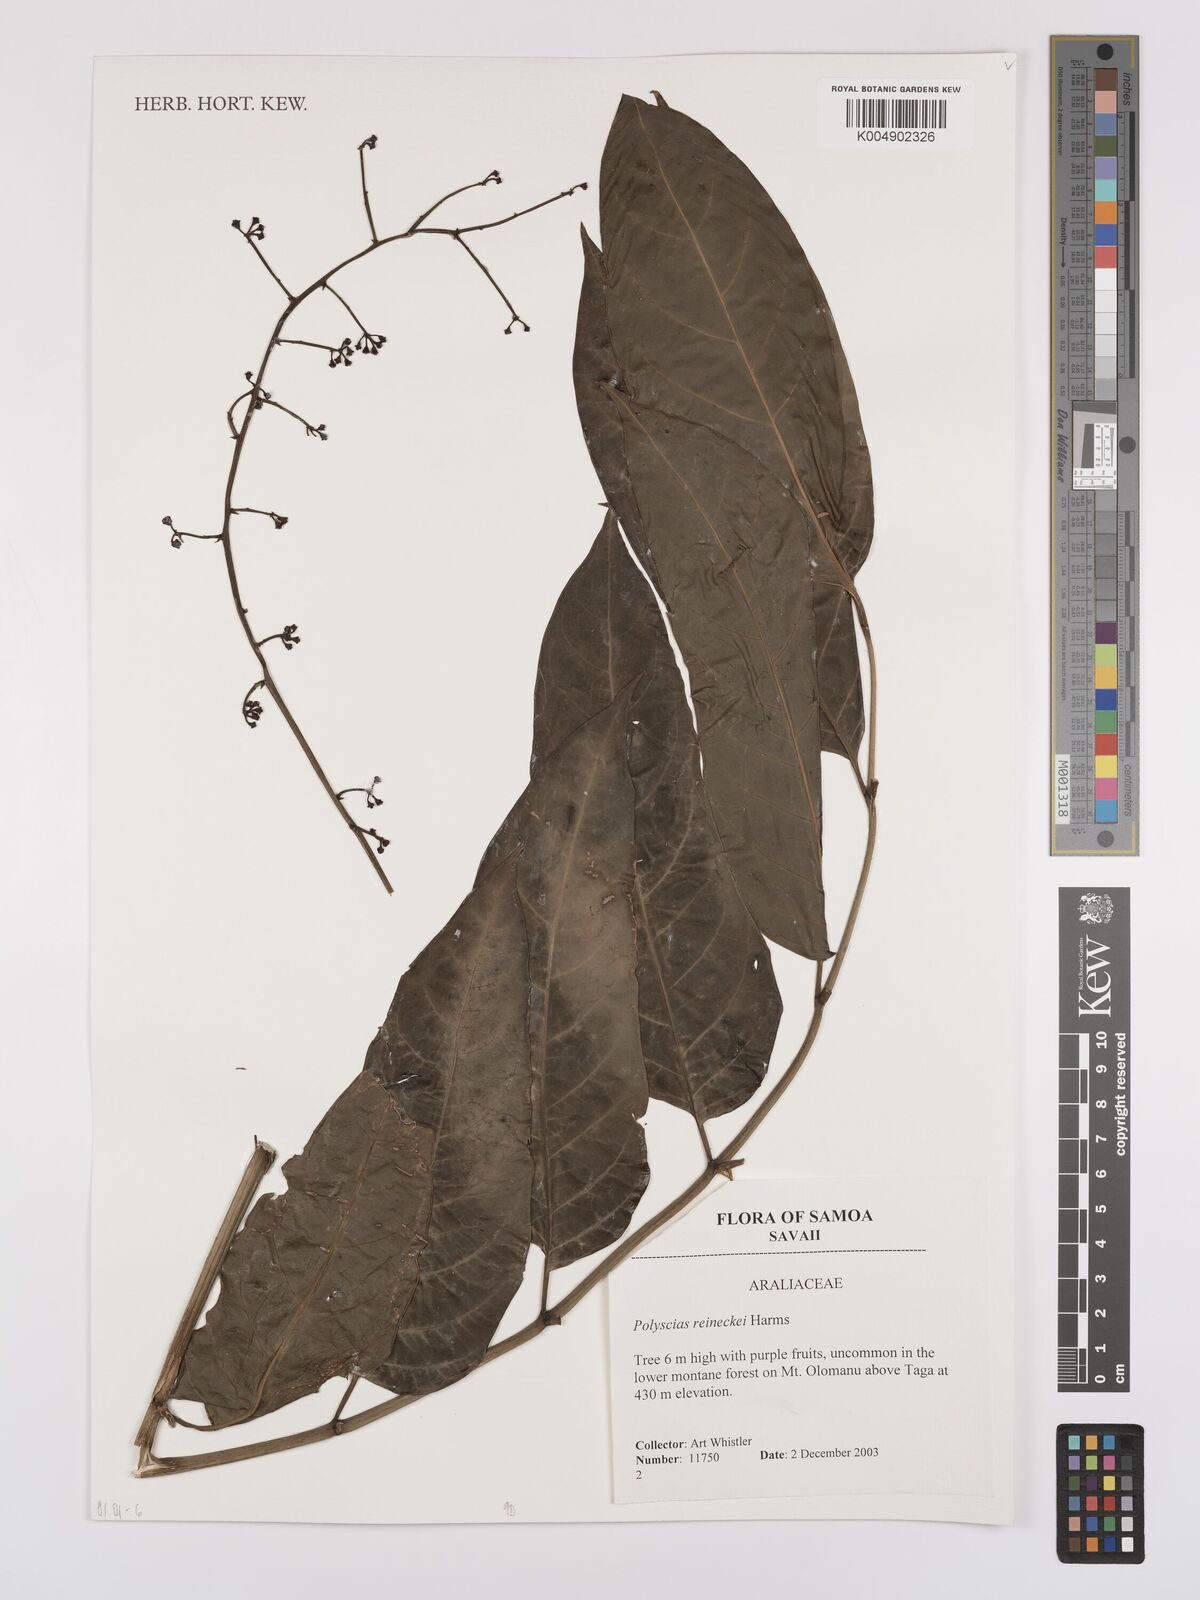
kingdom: Plantae
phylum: Tracheophyta
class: Magnoliopsida
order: Apiales
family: Araliaceae
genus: Polyscias
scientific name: Polyscias reineckei
